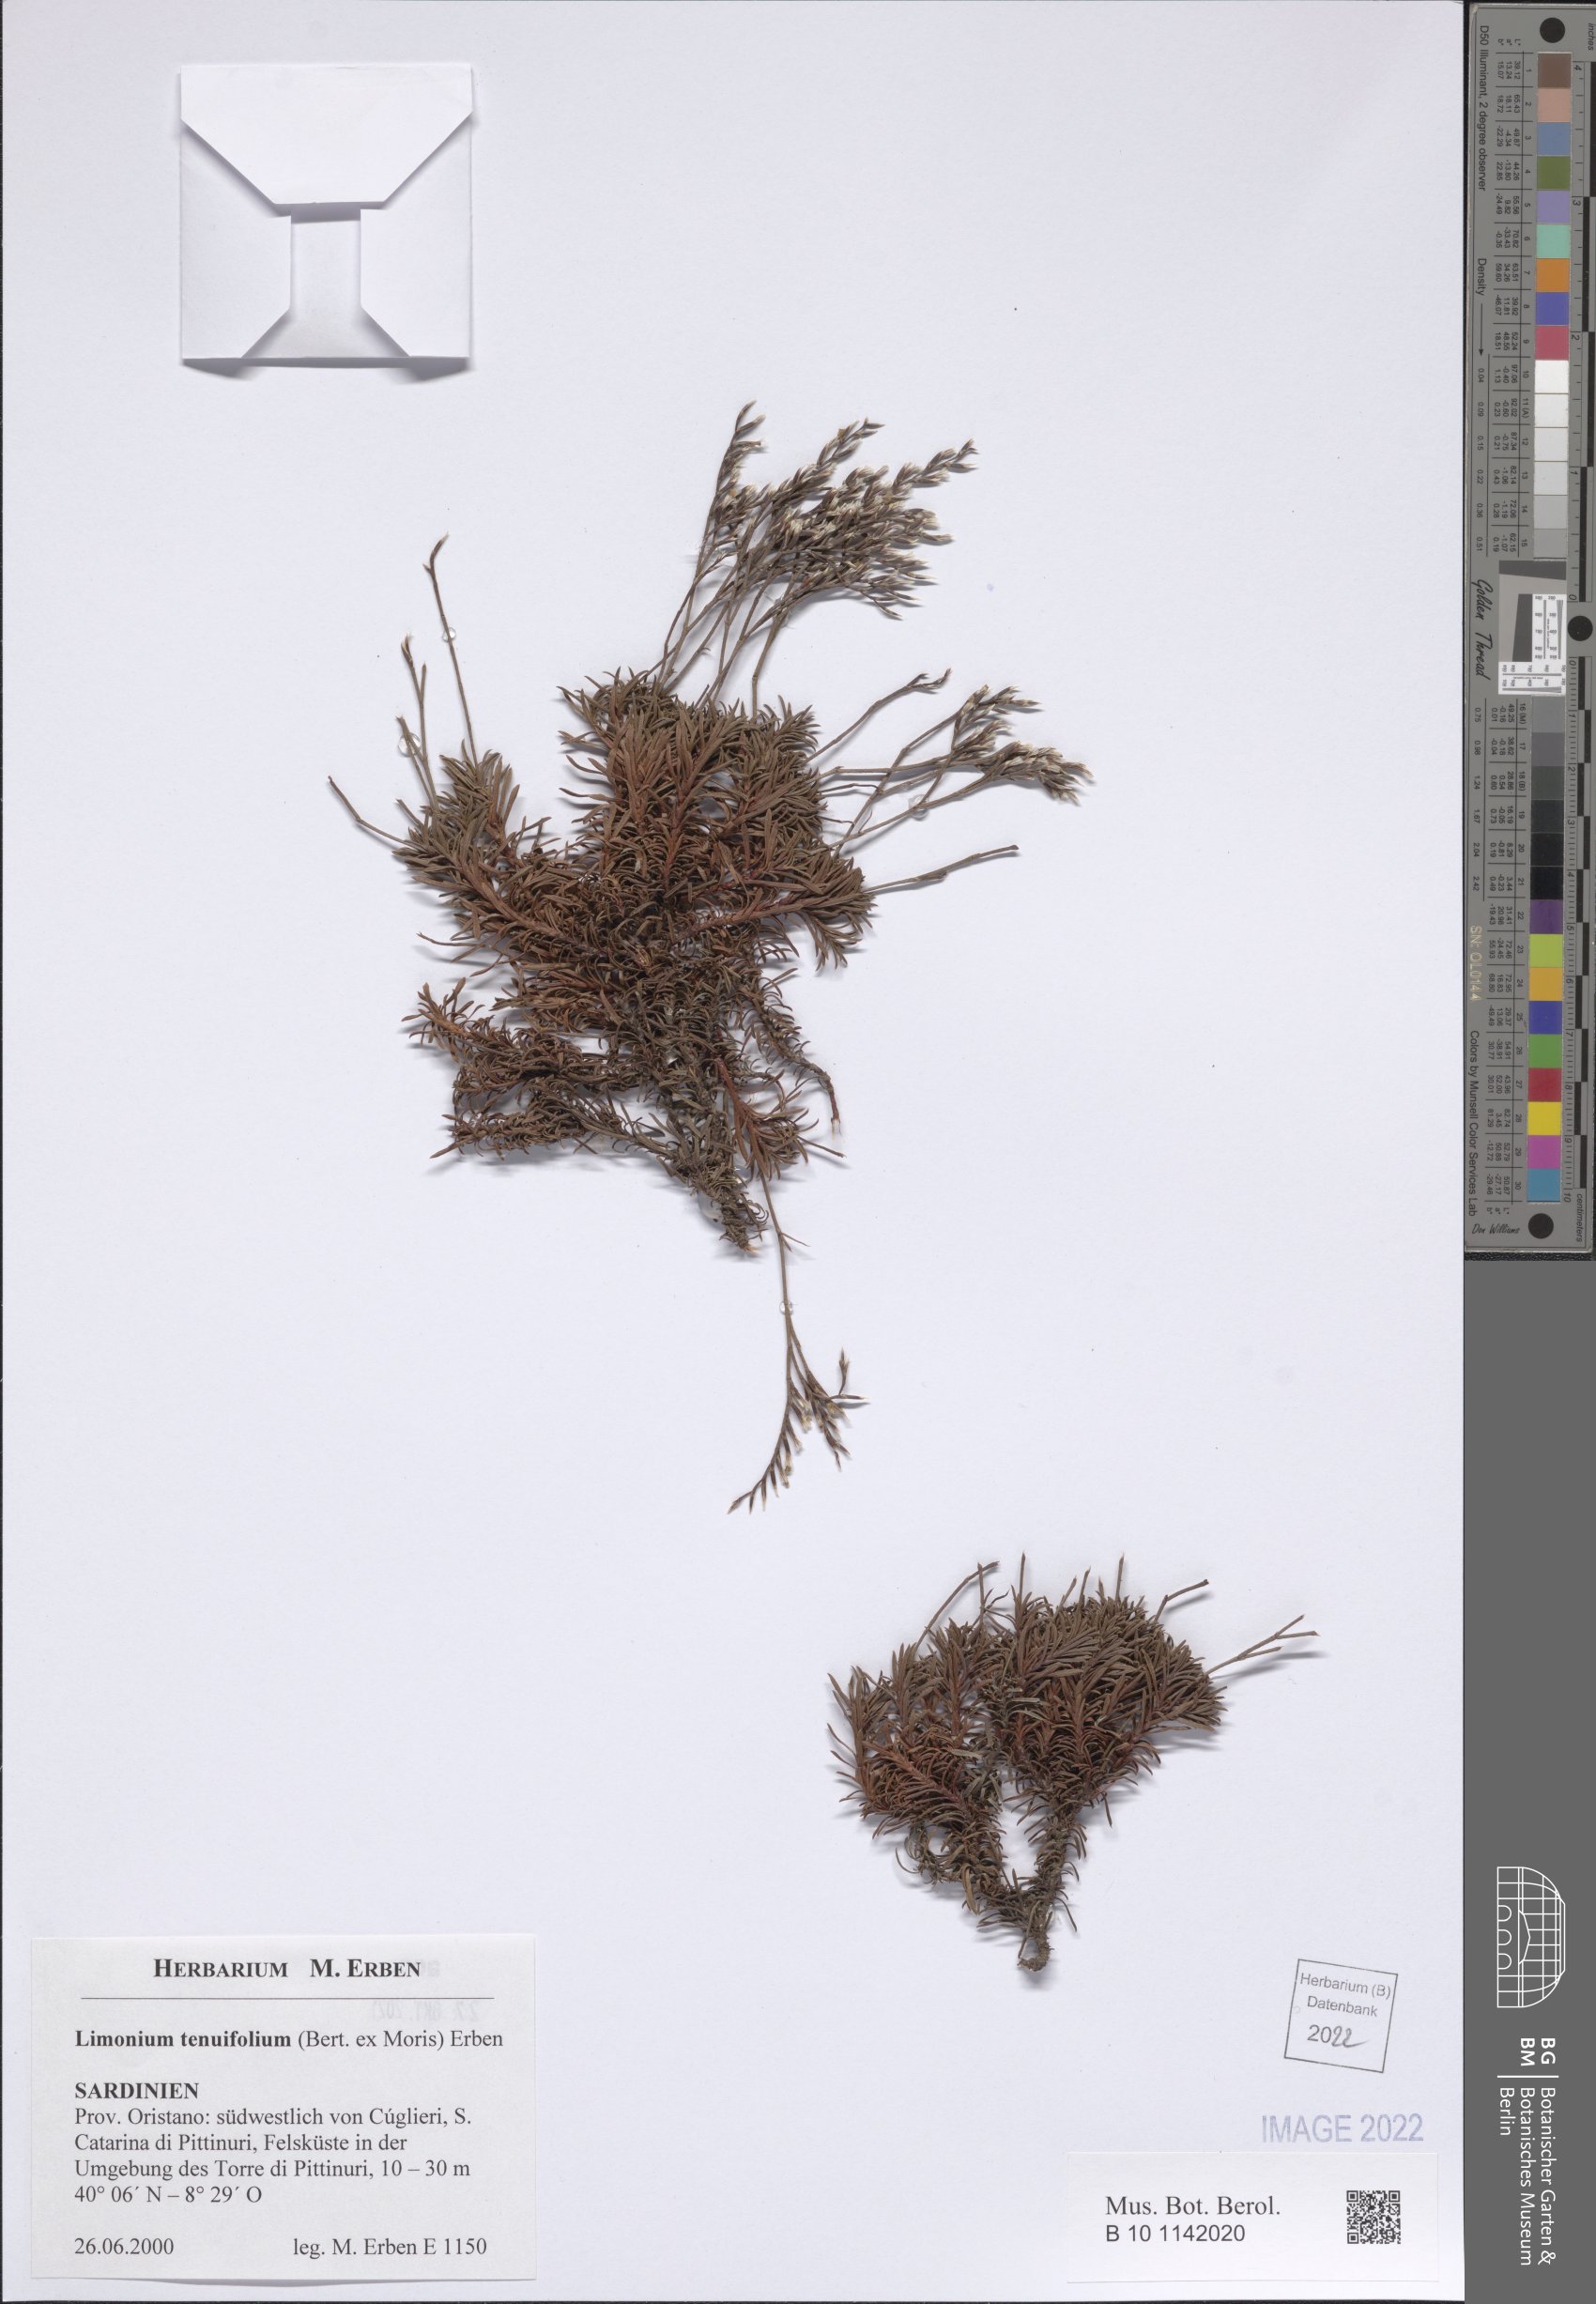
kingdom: Plantae
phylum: Tracheophyta
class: Magnoliopsida
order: Caryophyllales
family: Plumbaginaceae
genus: Limonium
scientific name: Limonium acutifolium
